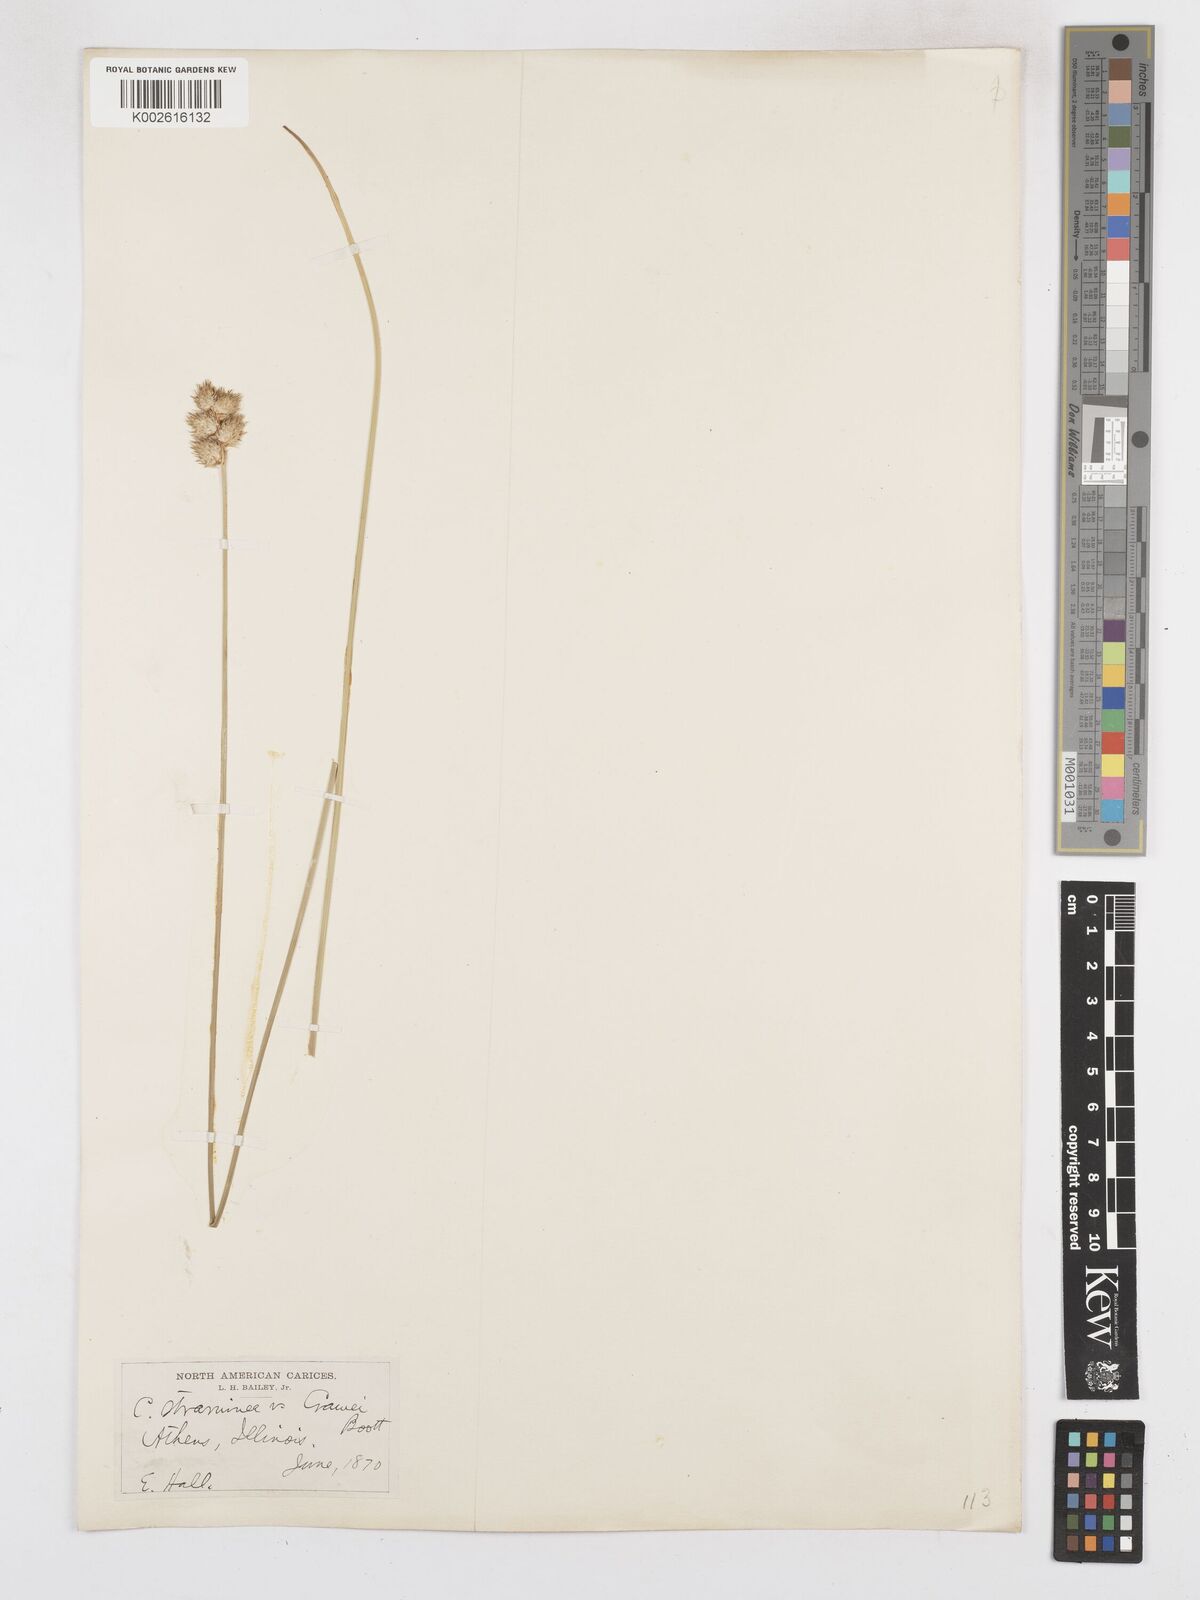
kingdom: Plantae
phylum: Tracheophyta
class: Liliopsida
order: Poales
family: Cyperaceae
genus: Carex
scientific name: Carex brevior
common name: Brevior sedge
